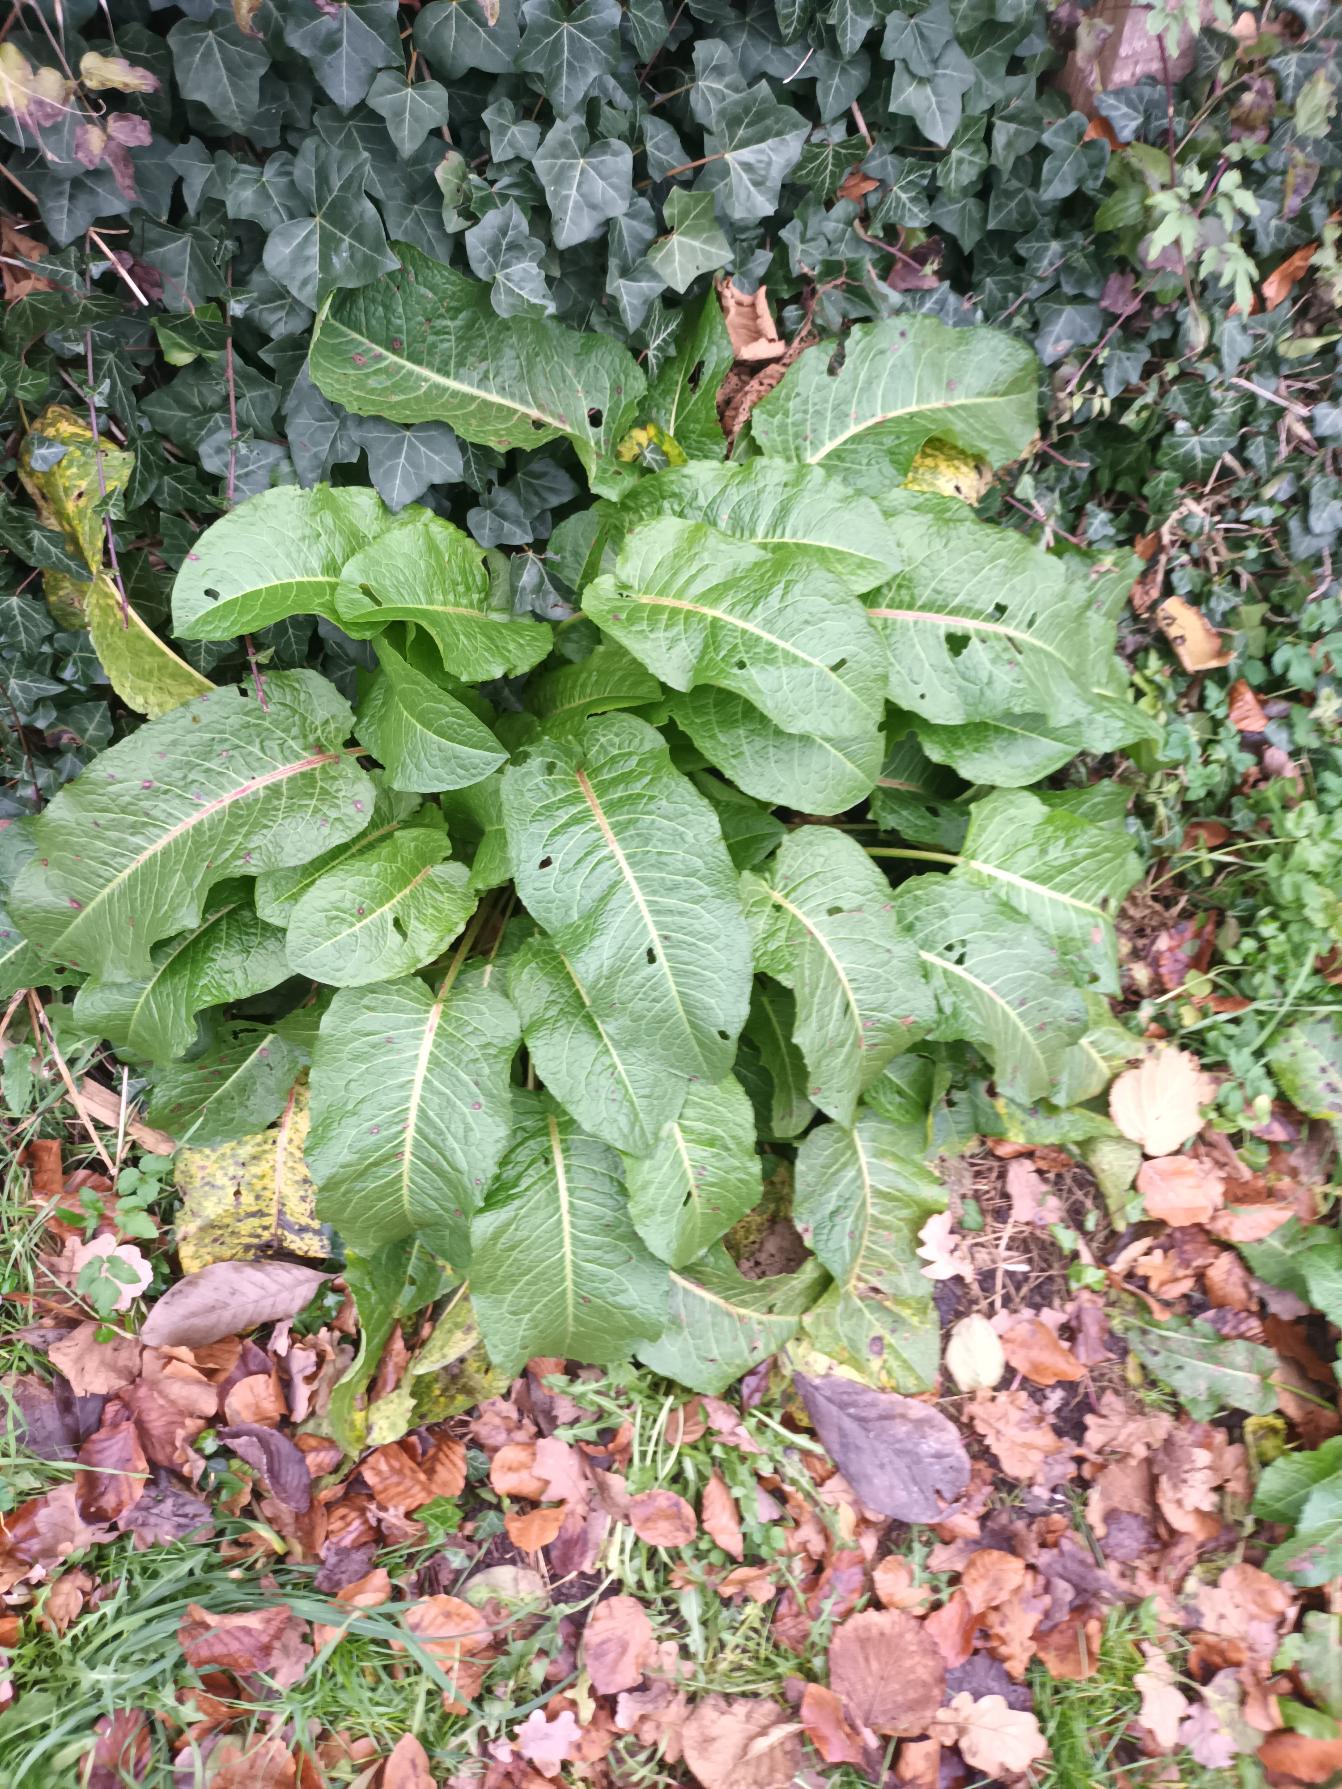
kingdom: Plantae
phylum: Tracheophyta
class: Magnoliopsida
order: Caryophyllales
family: Polygonaceae
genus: Rumex
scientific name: Rumex obtusifolius
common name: Butbladet skræppe
